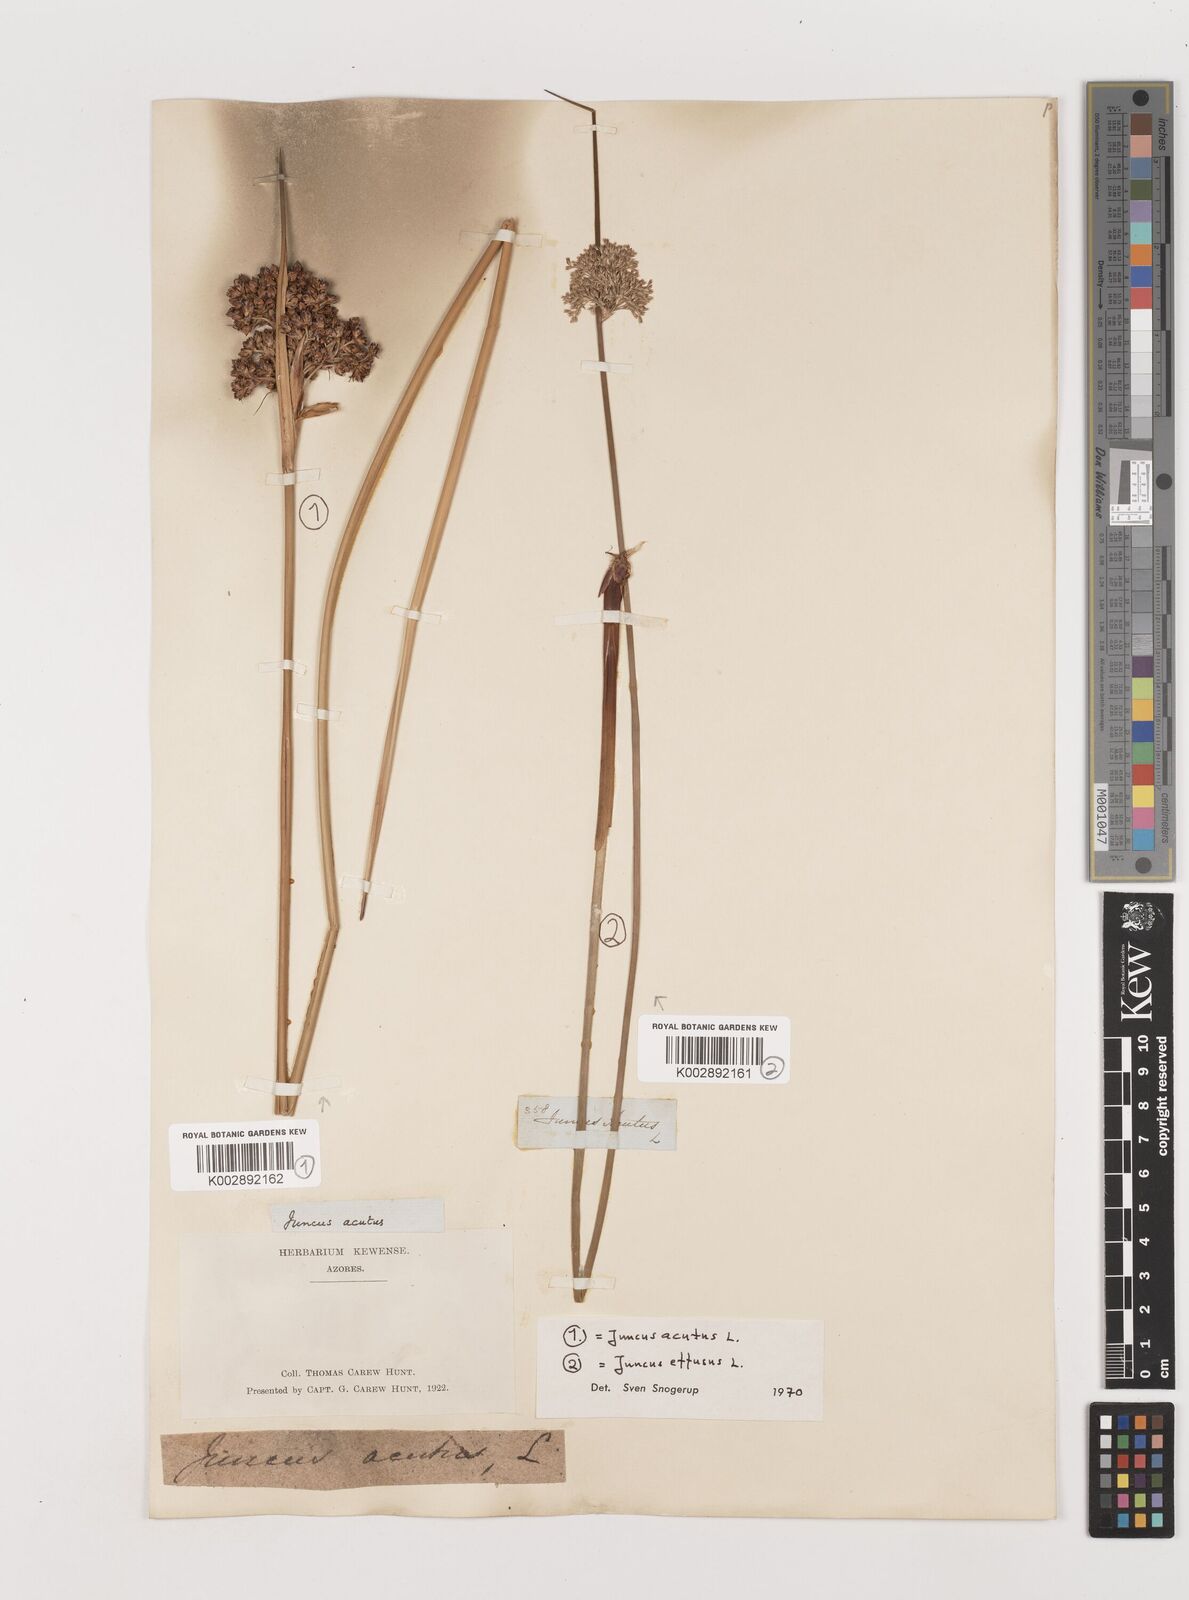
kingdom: Plantae
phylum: Tracheophyta
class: Liliopsida
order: Poales
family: Juncaceae
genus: Juncus
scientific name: Juncus acutus
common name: Sharp rush
